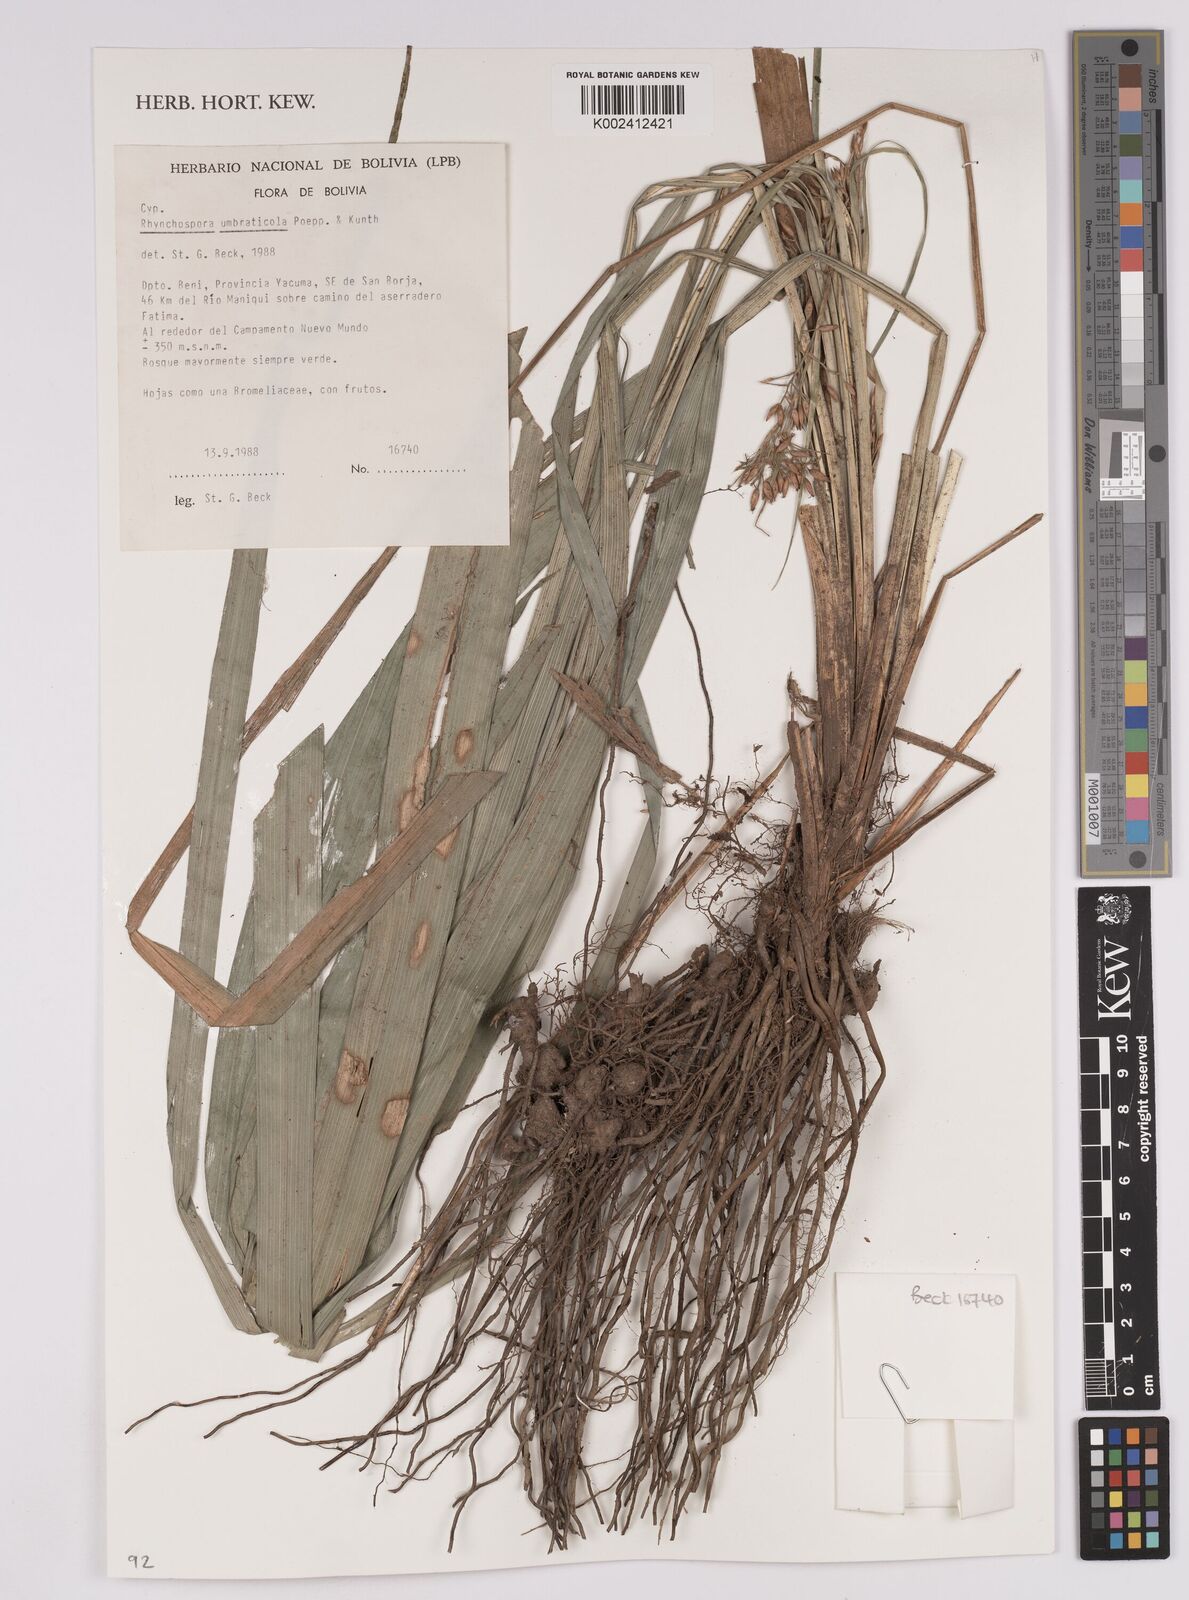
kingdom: Plantae
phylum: Tracheophyta
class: Liliopsida
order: Poales
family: Cyperaceae
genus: Rhynchospora
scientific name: Rhynchospora umbraticola
